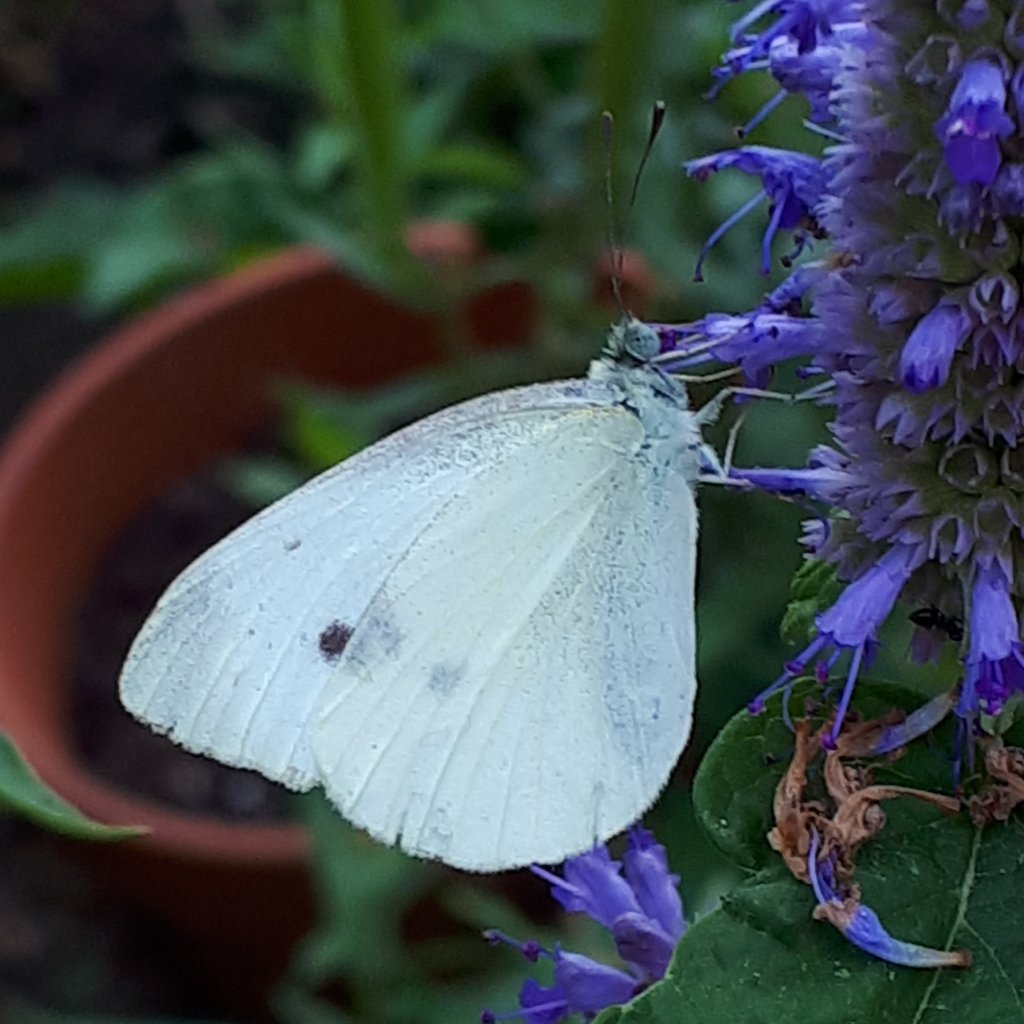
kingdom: Animalia
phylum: Arthropoda
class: Insecta
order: Lepidoptera
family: Pieridae
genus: Pieris
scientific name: Pieris rapae
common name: Cabbage White
